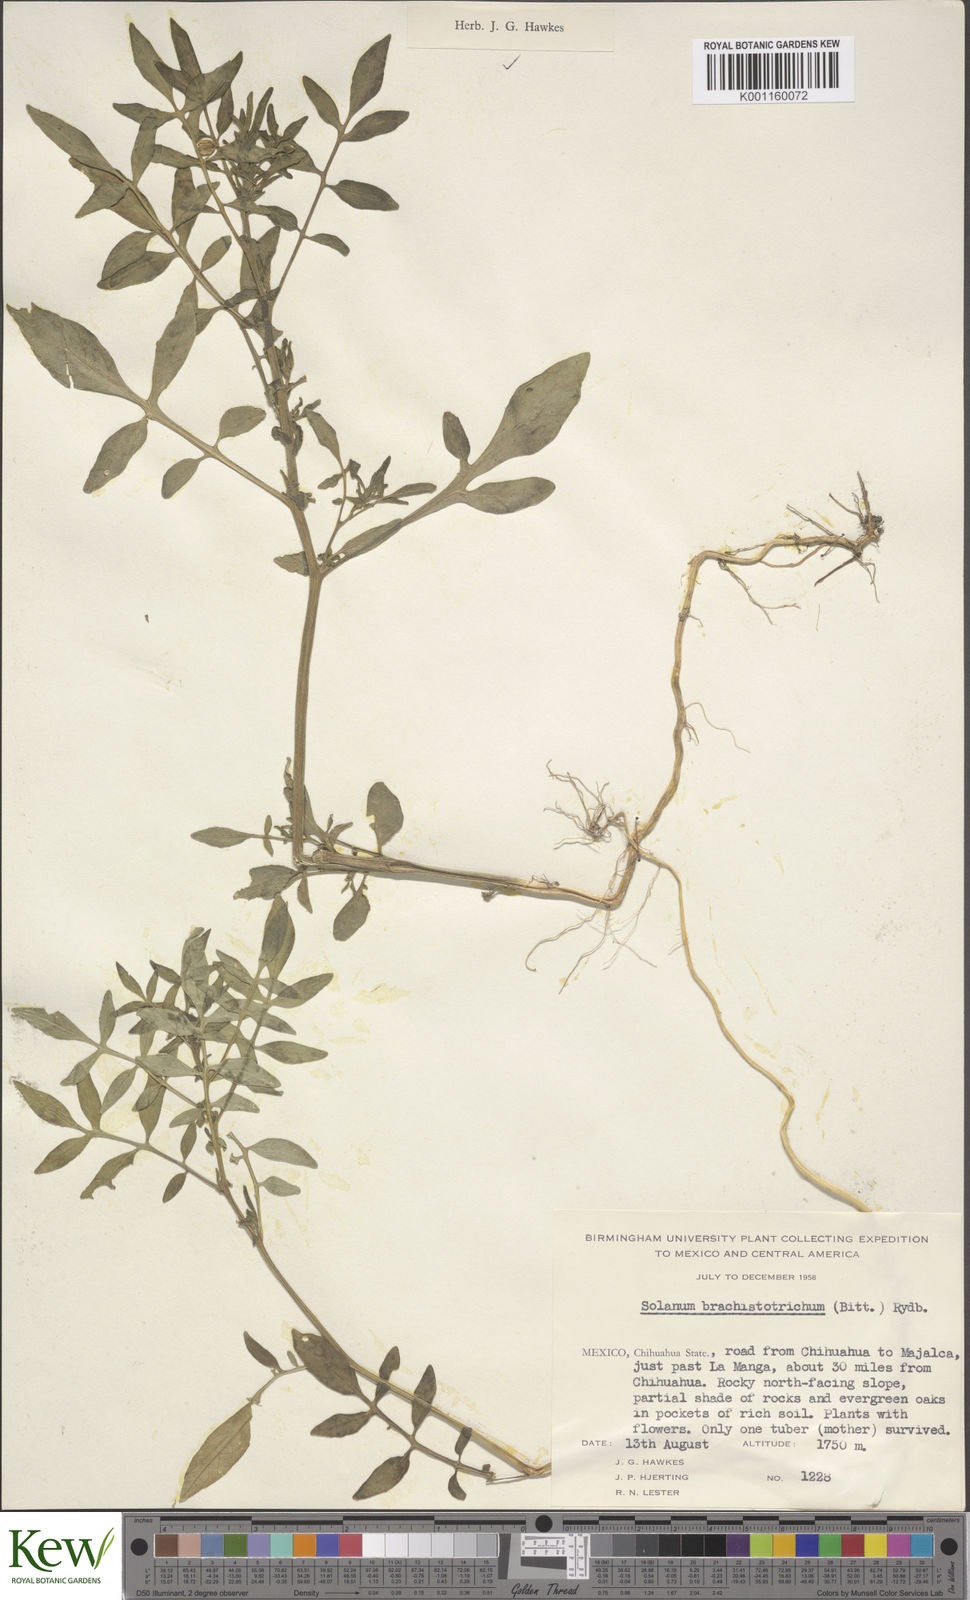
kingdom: Plantae
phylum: Tracheophyta
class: Magnoliopsida
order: Solanales
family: Solanaceae
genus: Solanum
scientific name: Solanum
